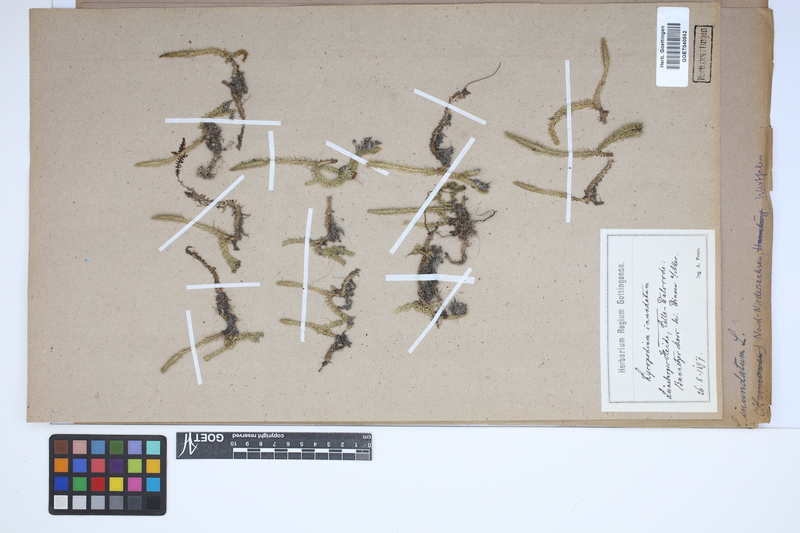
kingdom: Plantae
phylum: Tracheophyta
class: Lycopodiopsida
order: Lycopodiales
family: Lycopodiaceae
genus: Lycopodiella
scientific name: Lycopodiella inundata
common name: Marsh clubmoss
